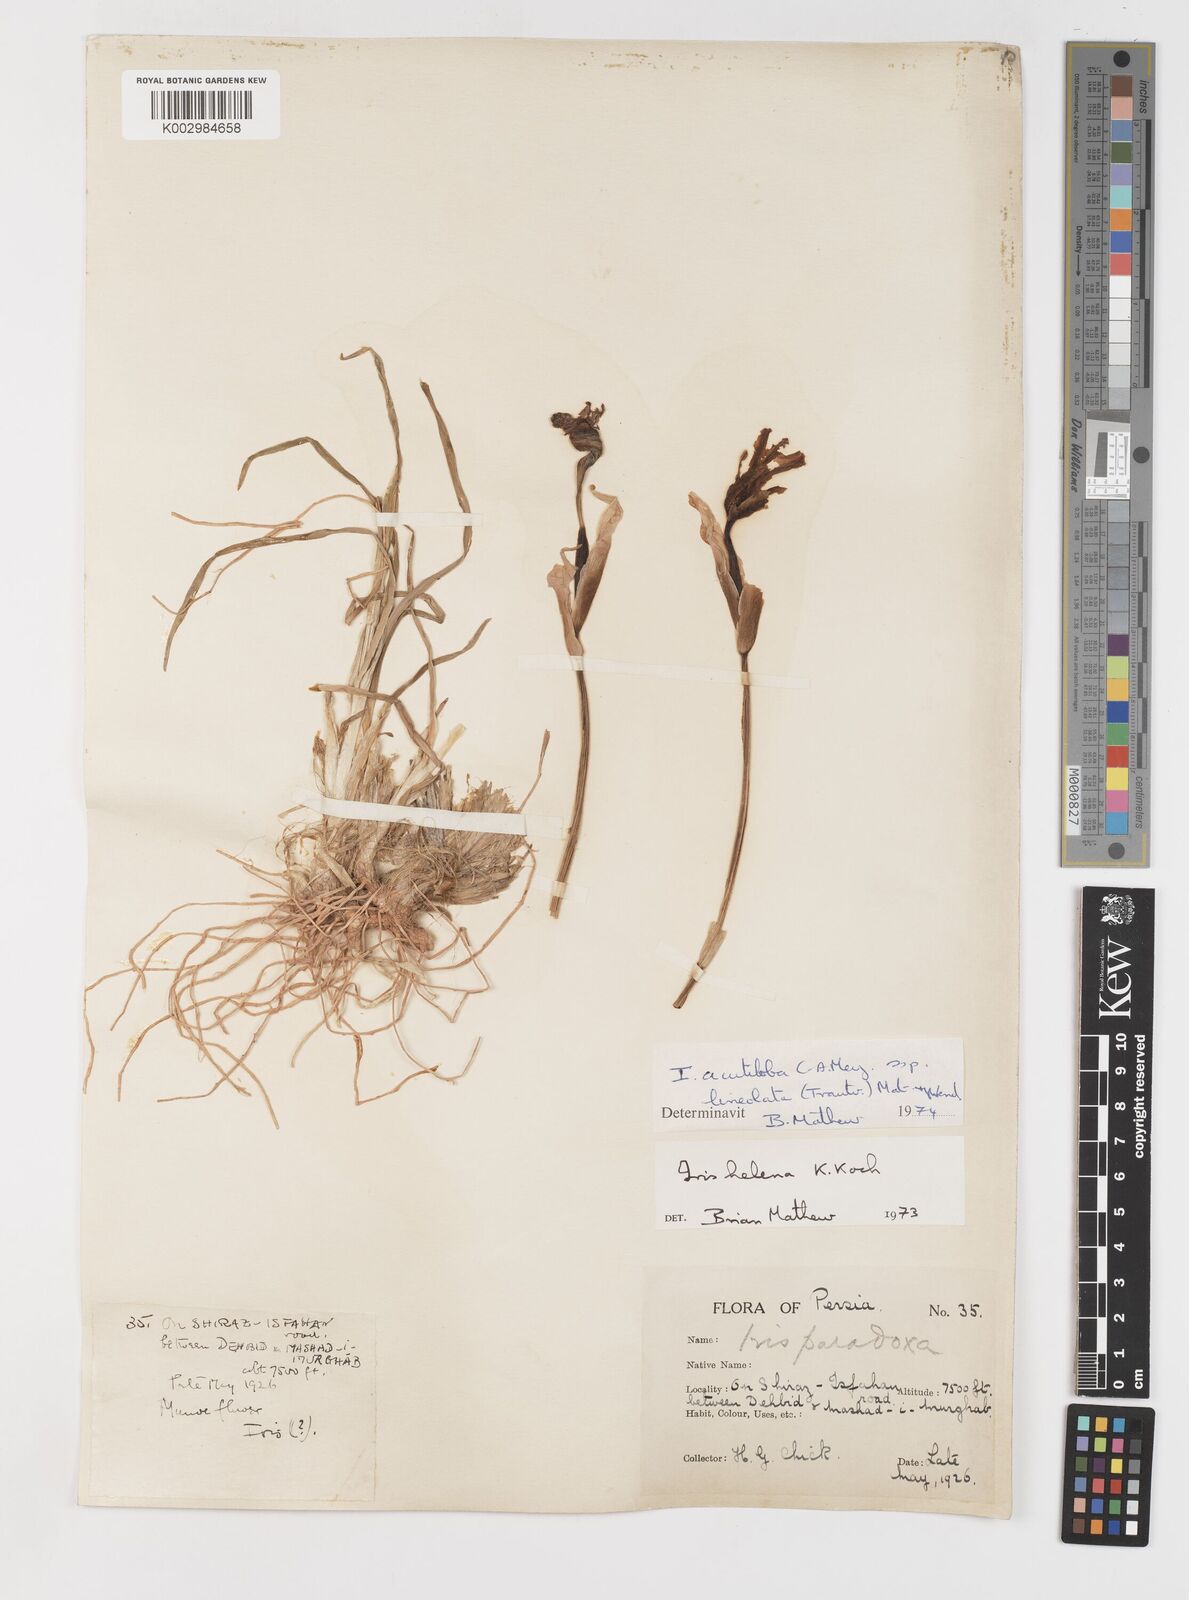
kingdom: Plantae
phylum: Tracheophyta
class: Liliopsida
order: Asparagales
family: Iridaceae
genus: Iris
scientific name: Iris acutiloba
